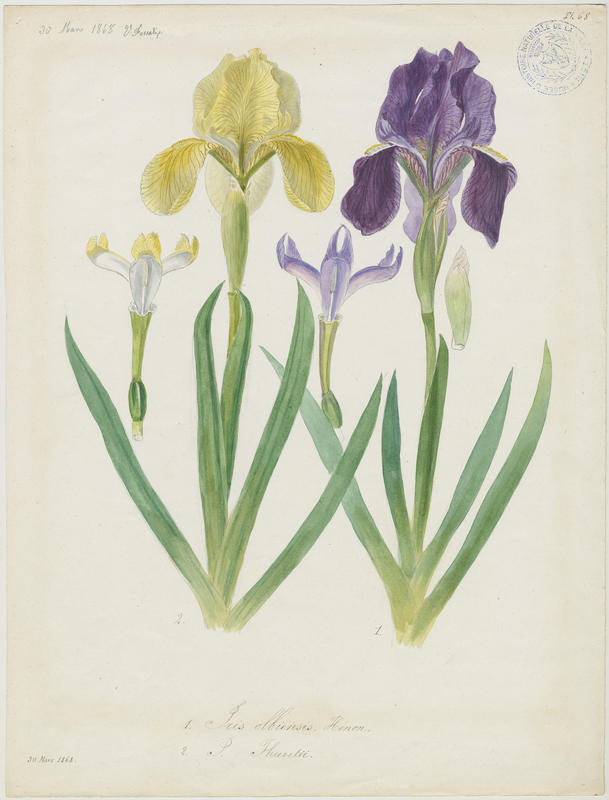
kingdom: Plantae
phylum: Tracheophyta
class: Liliopsida
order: Asparagales
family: Iridaceae
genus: Iris
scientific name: Iris lutescens
